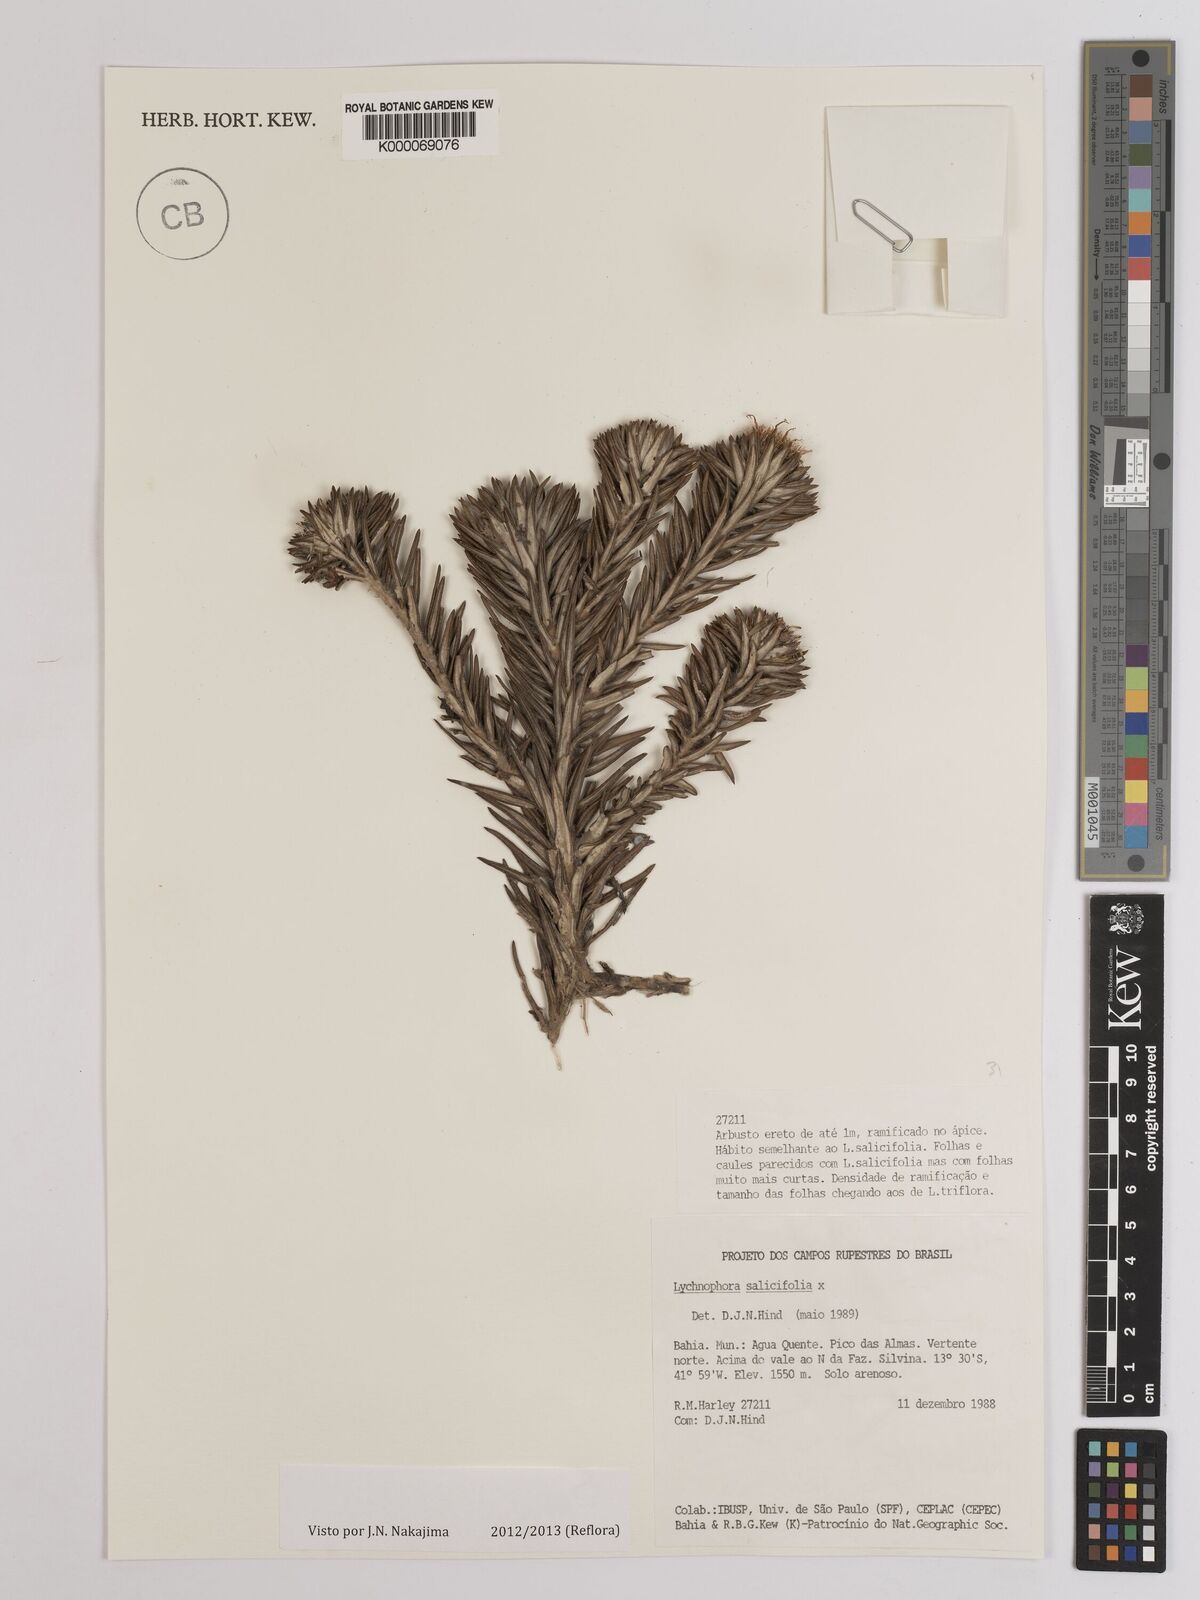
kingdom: Plantae
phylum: Tracheophyta
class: Magnoliopsida
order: Asterales
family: Asteraceae
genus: Lychnophora
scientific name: Lychnophora salicifolia
